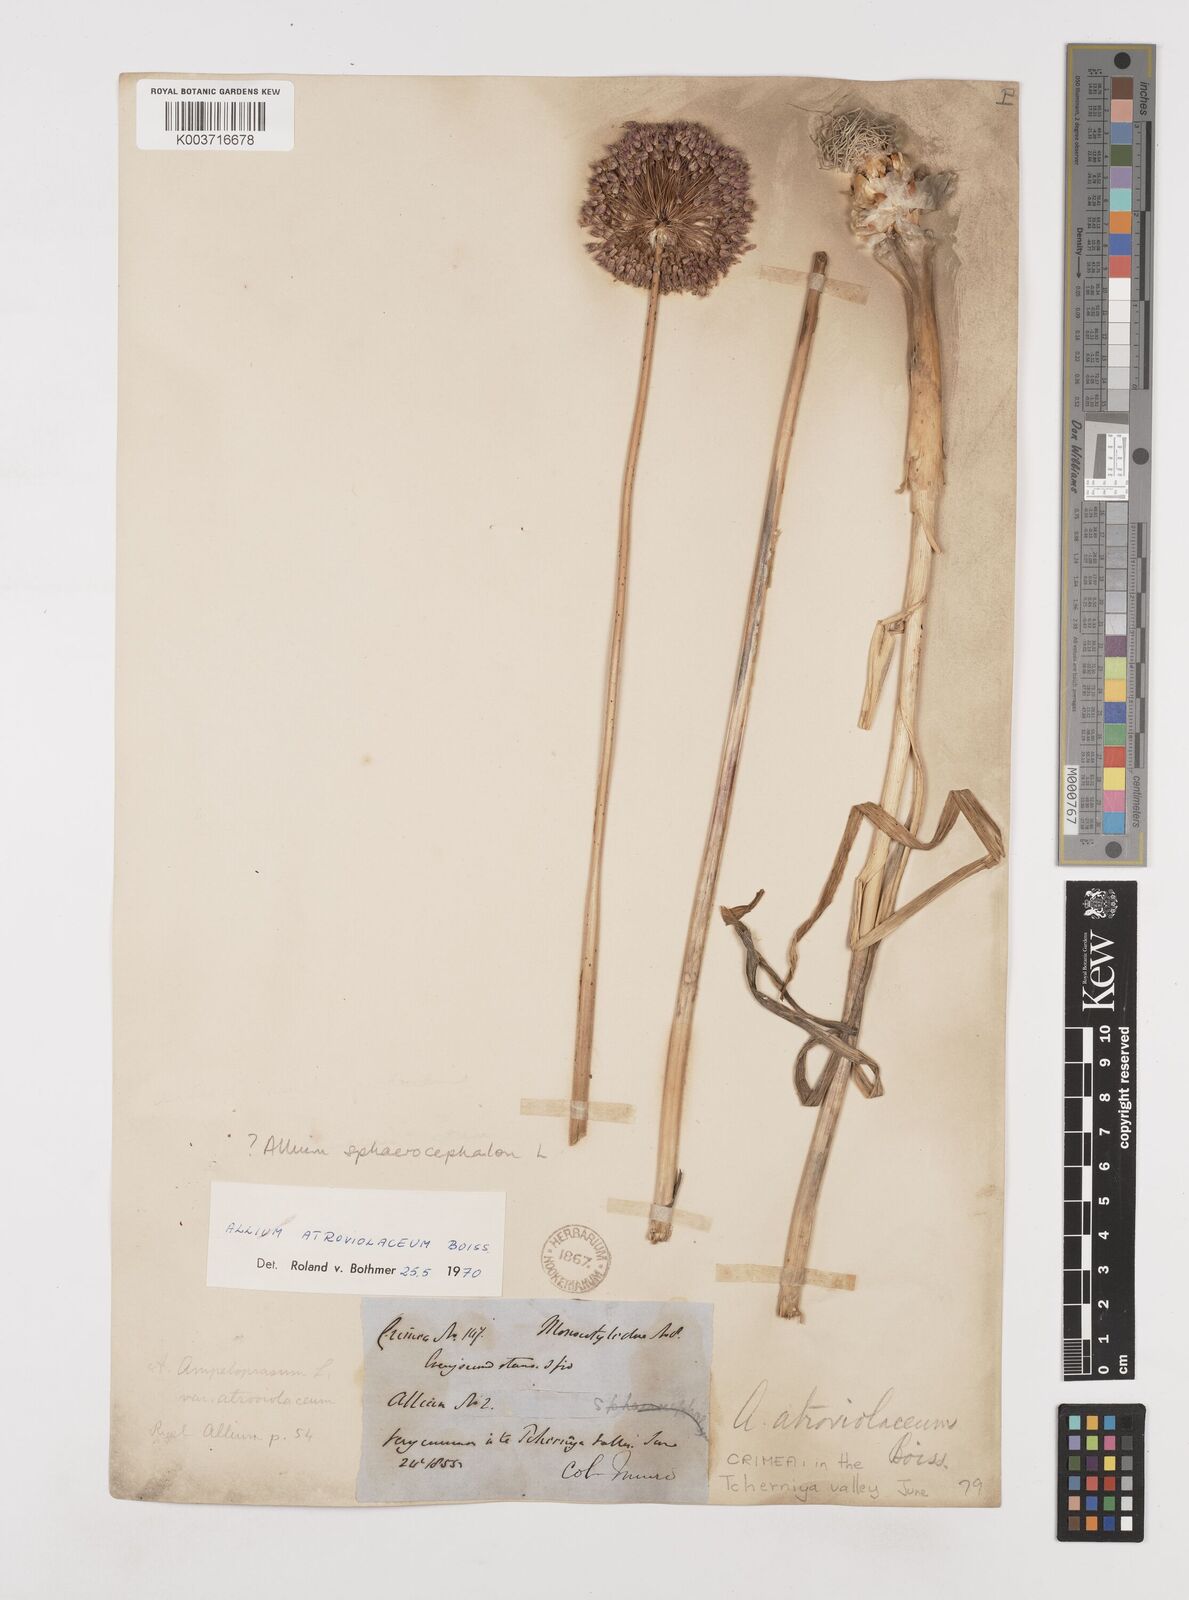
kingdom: Plantae
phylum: Tracheophyta
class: Liliopsida
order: Asparagales
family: Amaryllidaceae
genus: Allium
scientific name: Allium sphaerocephalon
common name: Round-headed leek
